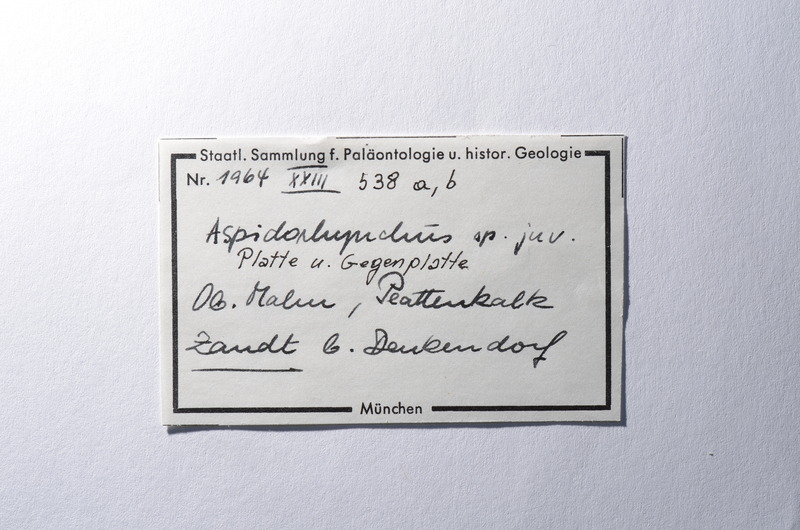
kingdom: Animalia
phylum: Chordata
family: Aspidorhynchidae
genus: Aspidorhynchus
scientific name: Aspidorhynchus
